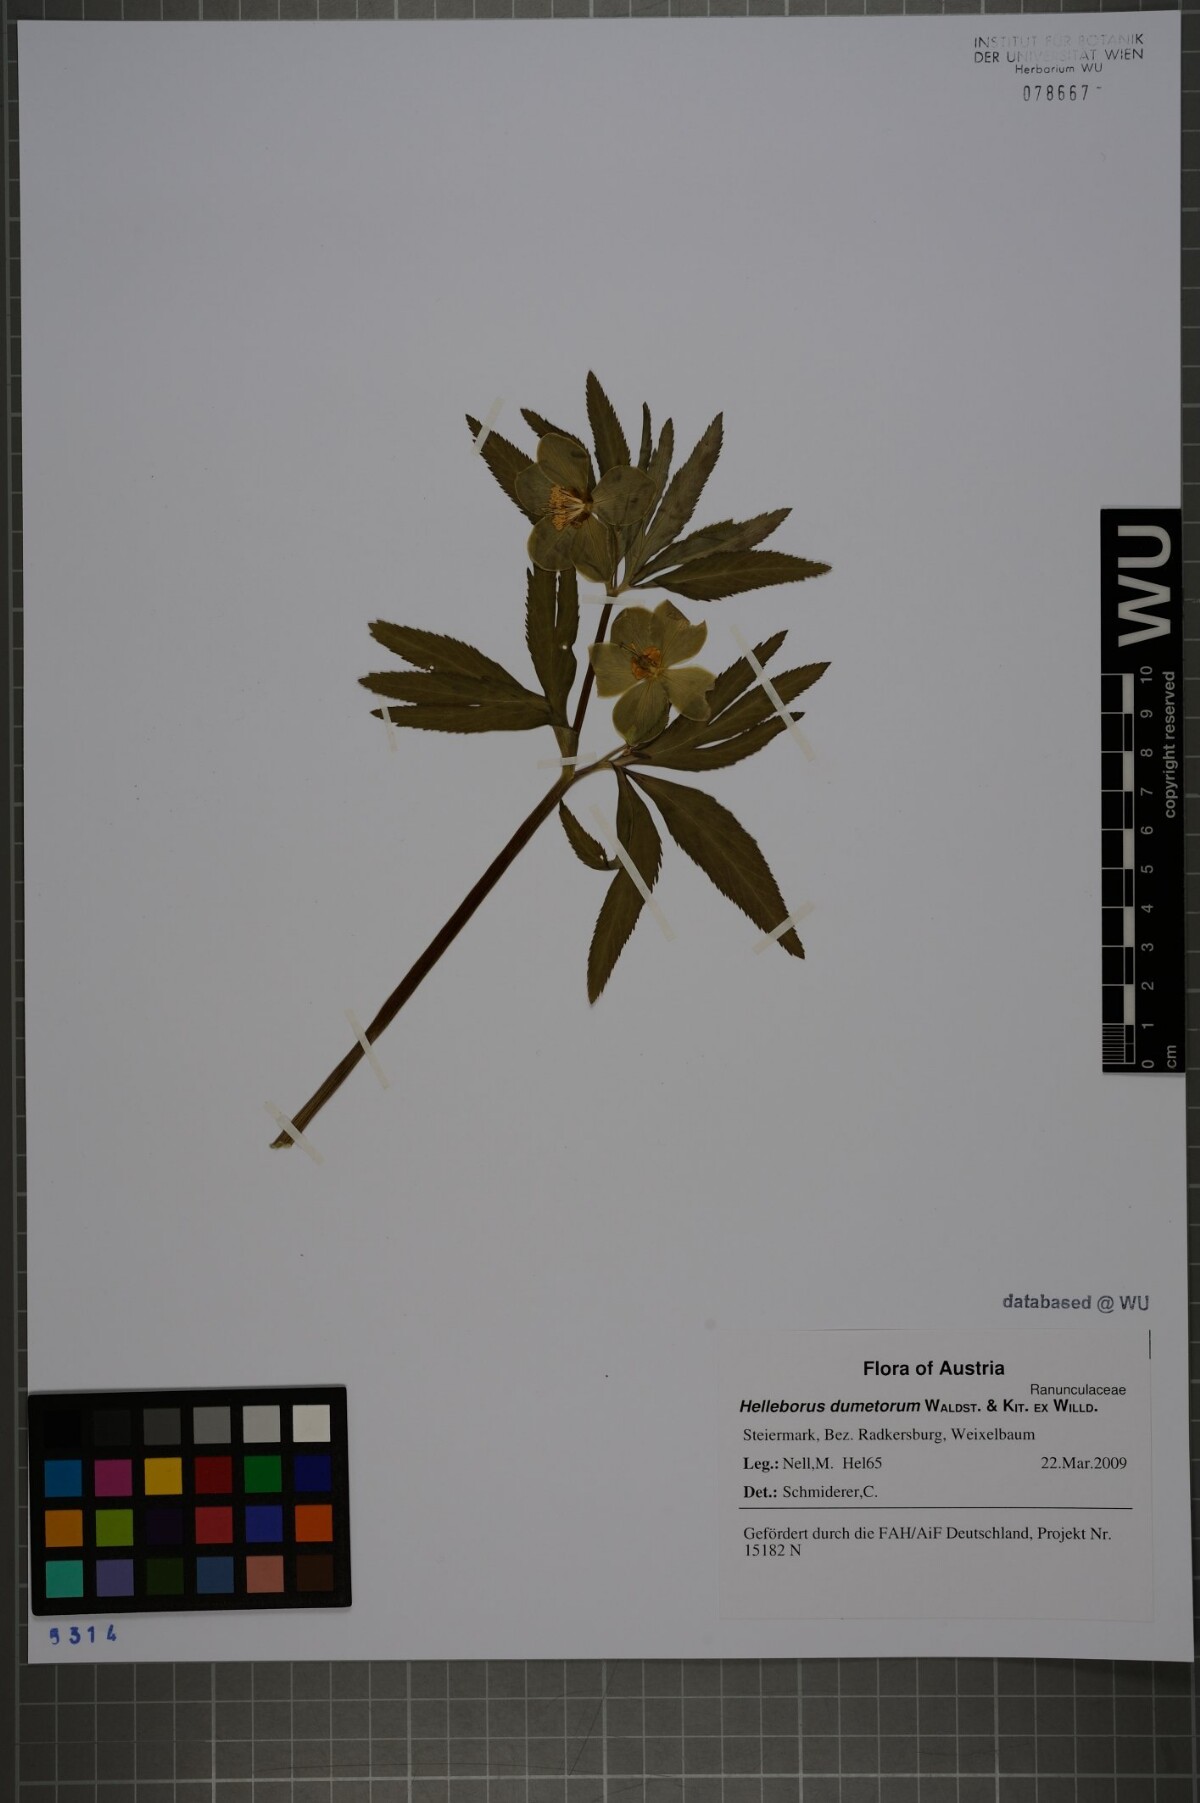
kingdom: Plantae
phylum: Tracheophyta
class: Magnoliopsida
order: Ranunculales
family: Ranunculaceae
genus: Helleborus
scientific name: Helleborus dumetorum
